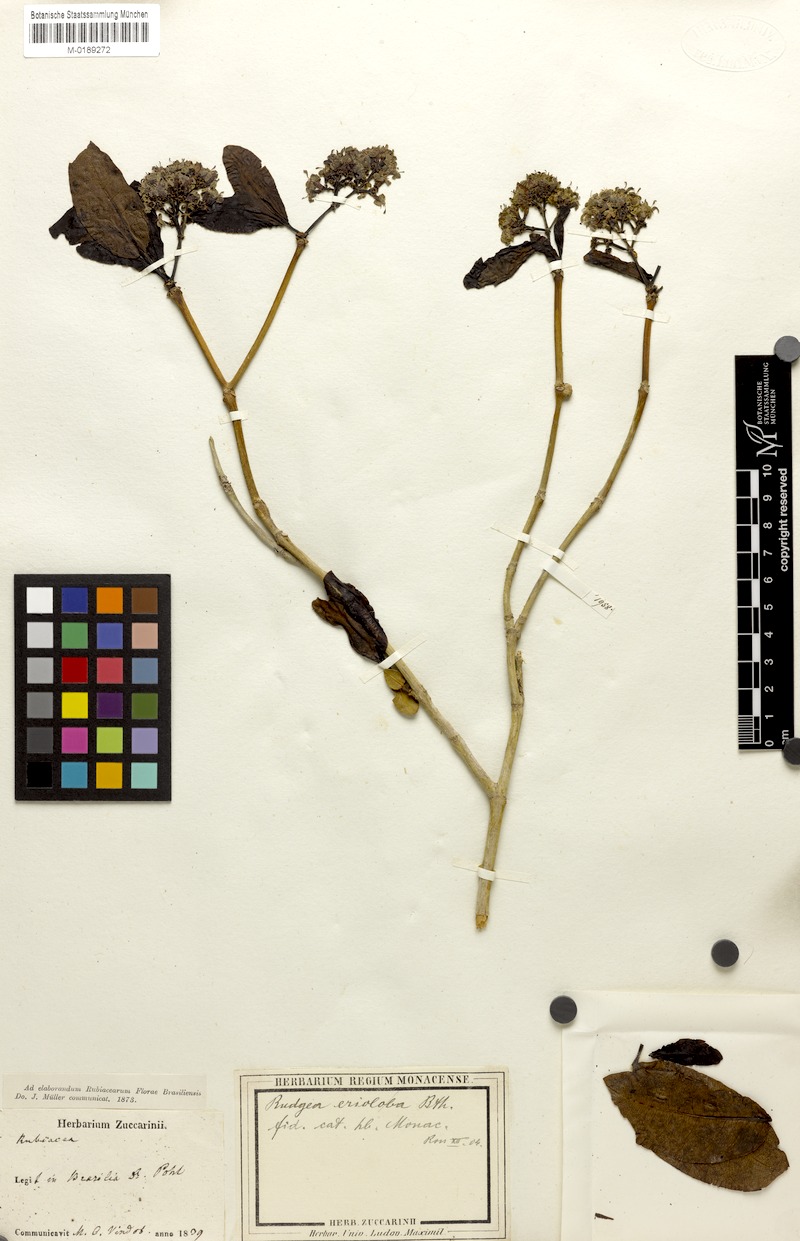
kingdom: Plantae
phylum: Tracheophyta
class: Magnoliopsida
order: Gentianales
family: Rubiaceae
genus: Rudgea
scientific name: Rudgea erioloba
